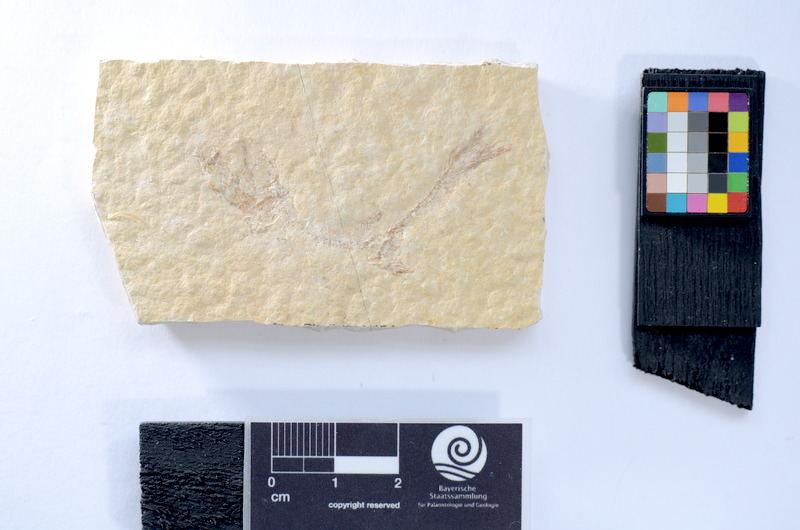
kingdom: Animalia
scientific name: Animalia
